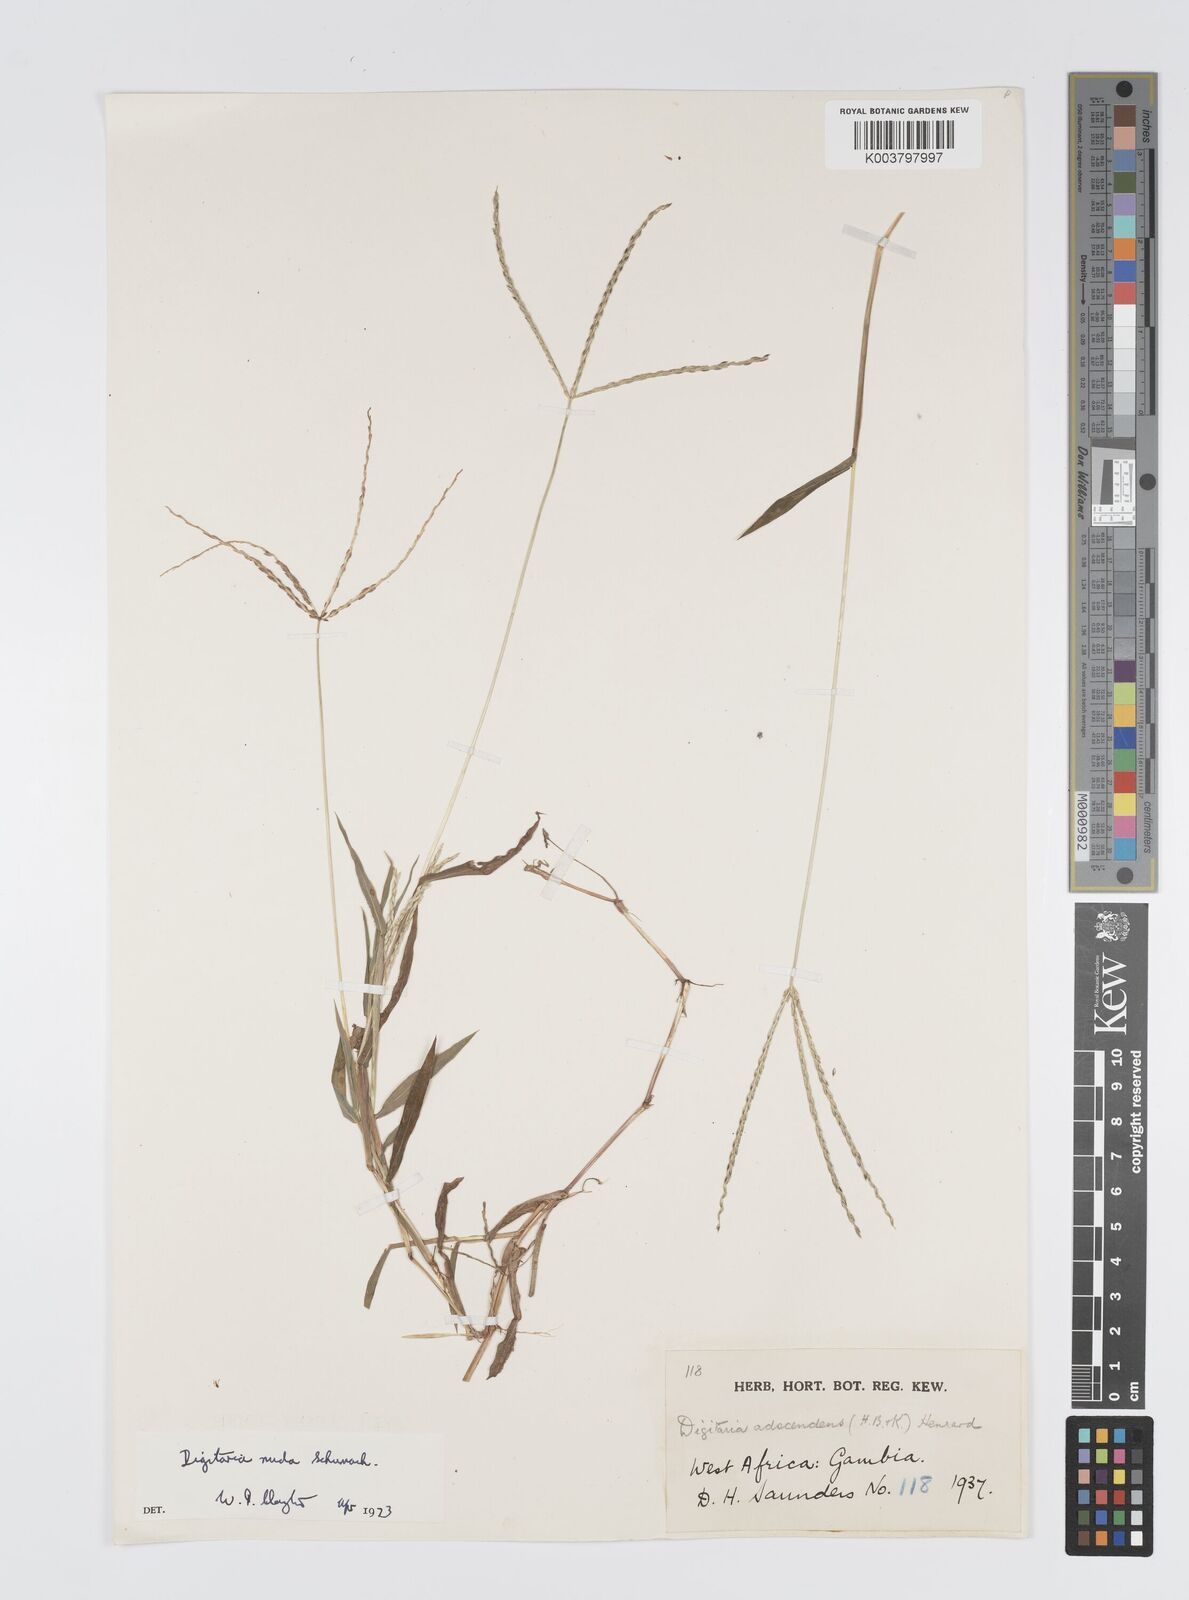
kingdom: Plantae
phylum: Tracheophyta
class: Liliopsida
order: Poales
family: Poaceae
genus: Digitaria
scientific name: Digitaria nuda
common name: Naked crabgrass
